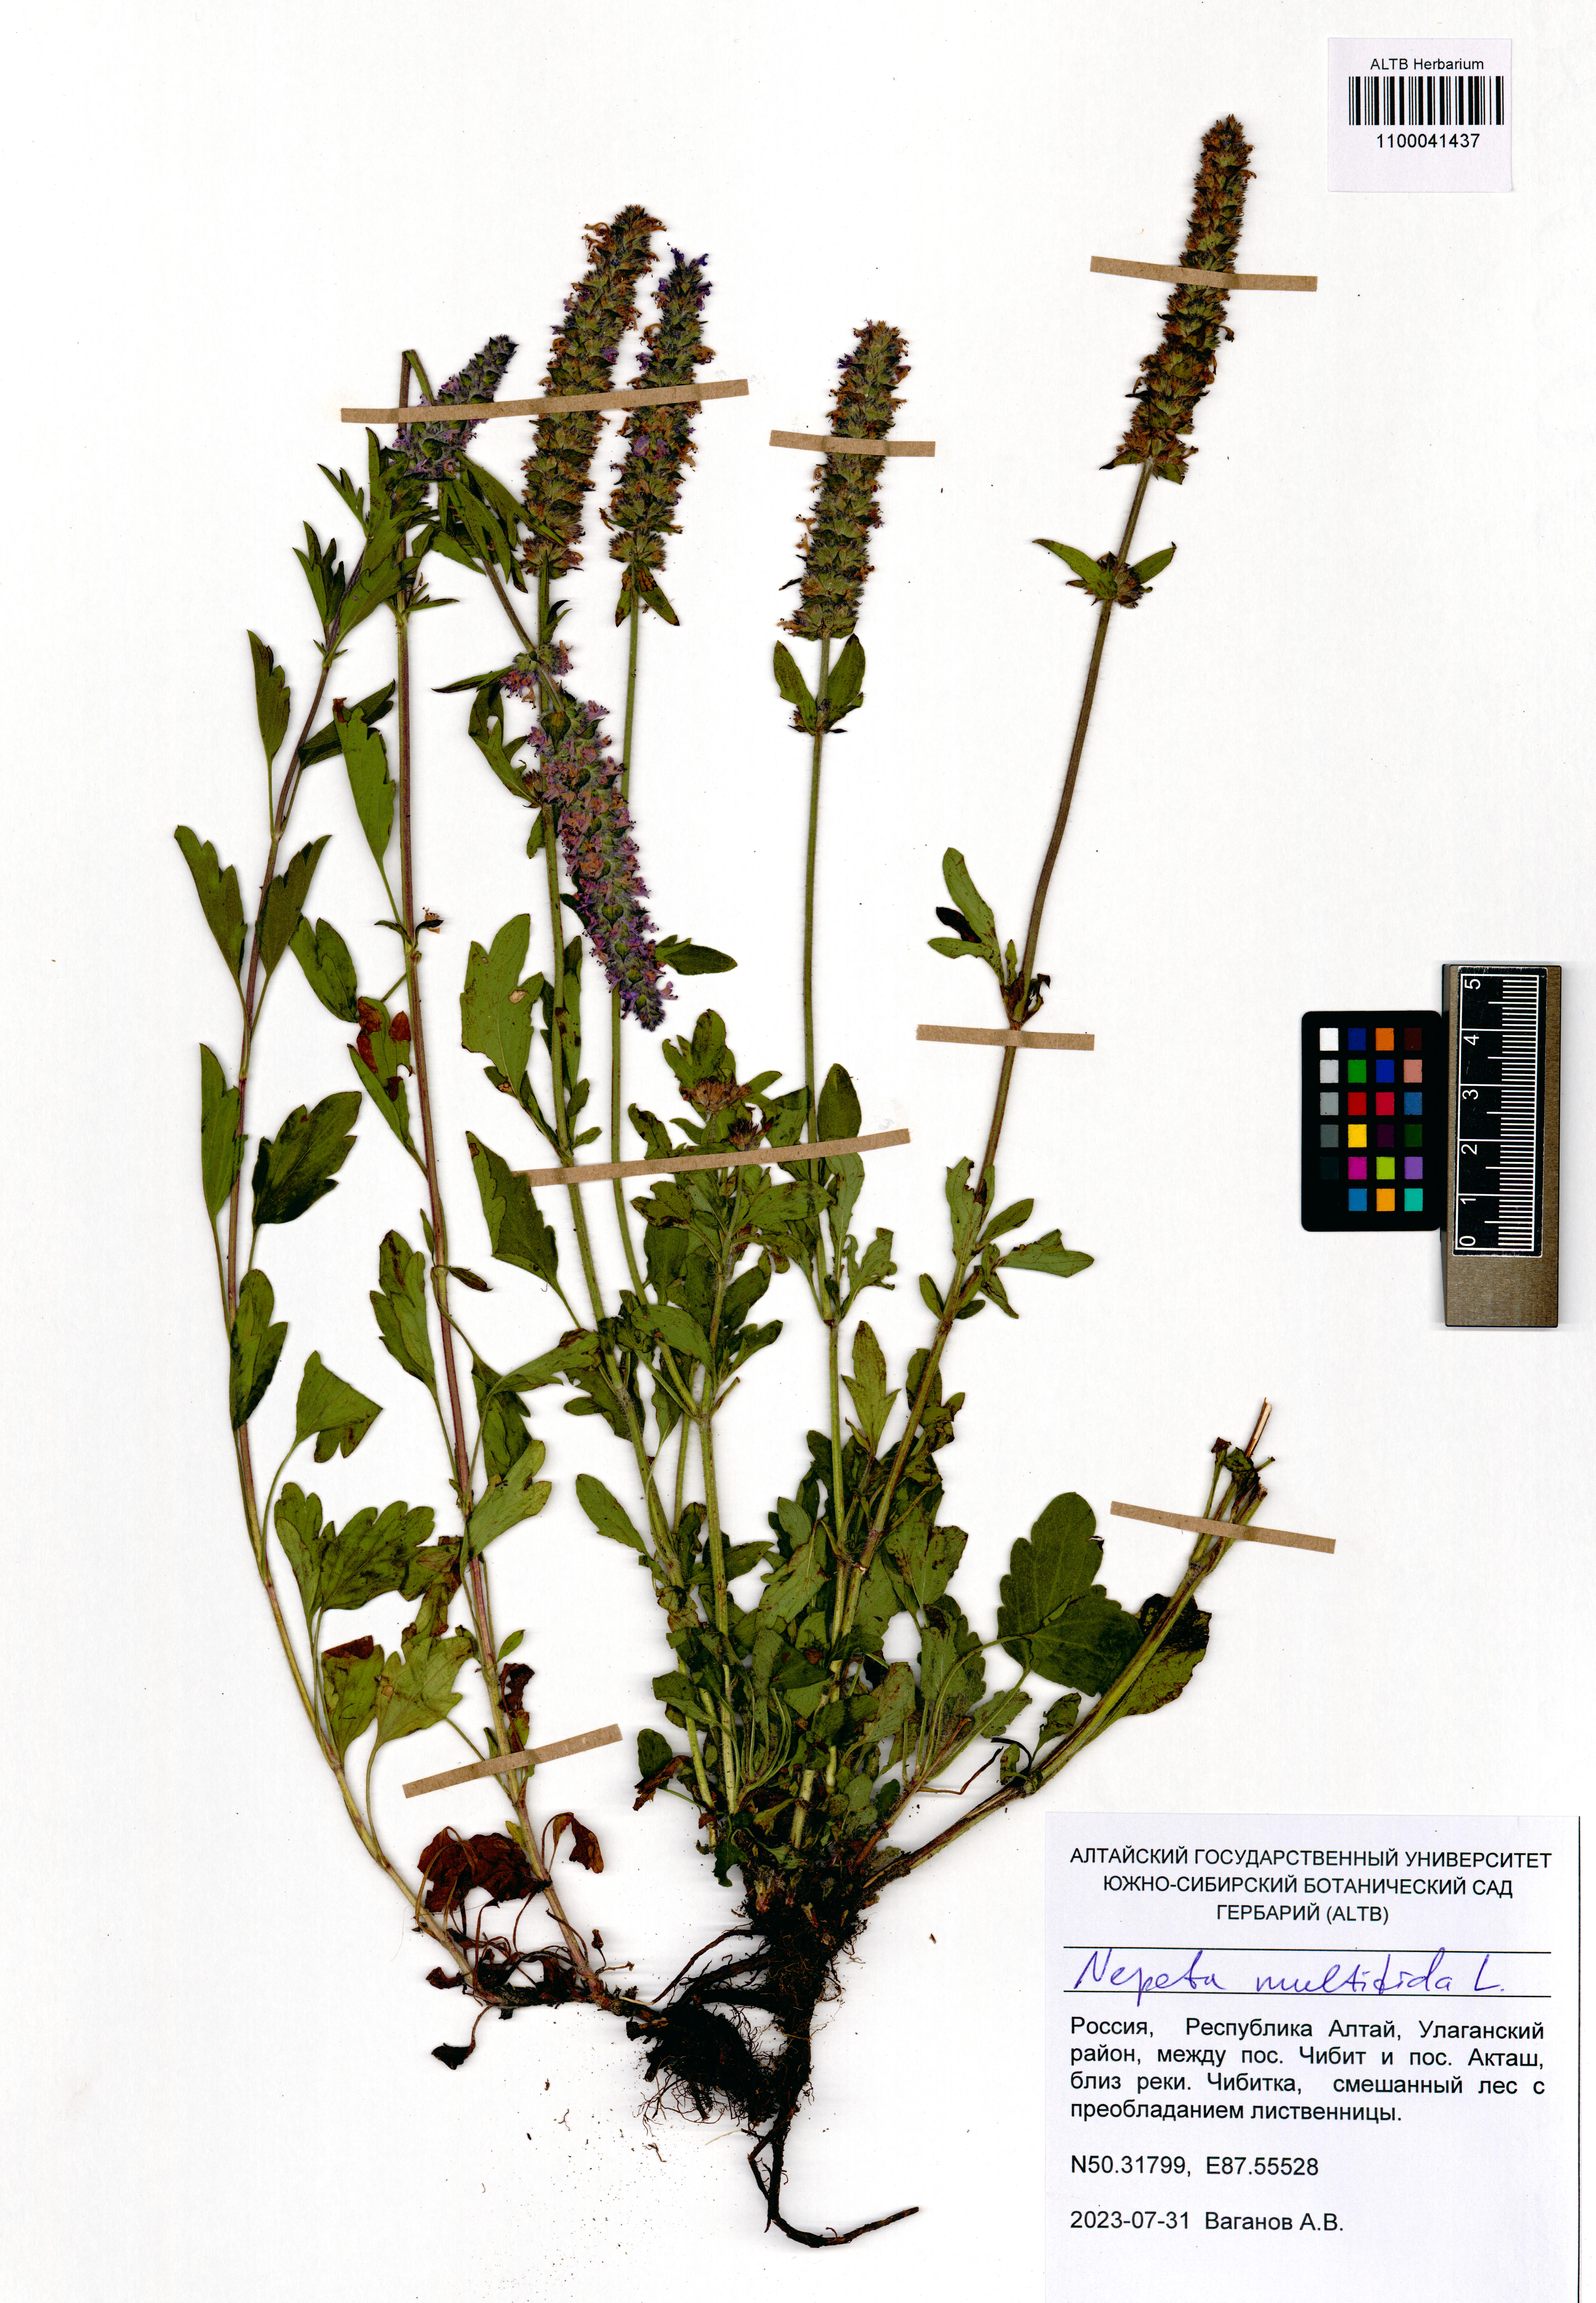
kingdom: Plantae
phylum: Tracheophyta
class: Magnoliopsida
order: Lamiales
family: Lamiaceae
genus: Nepeta
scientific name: Nepeta multifida
